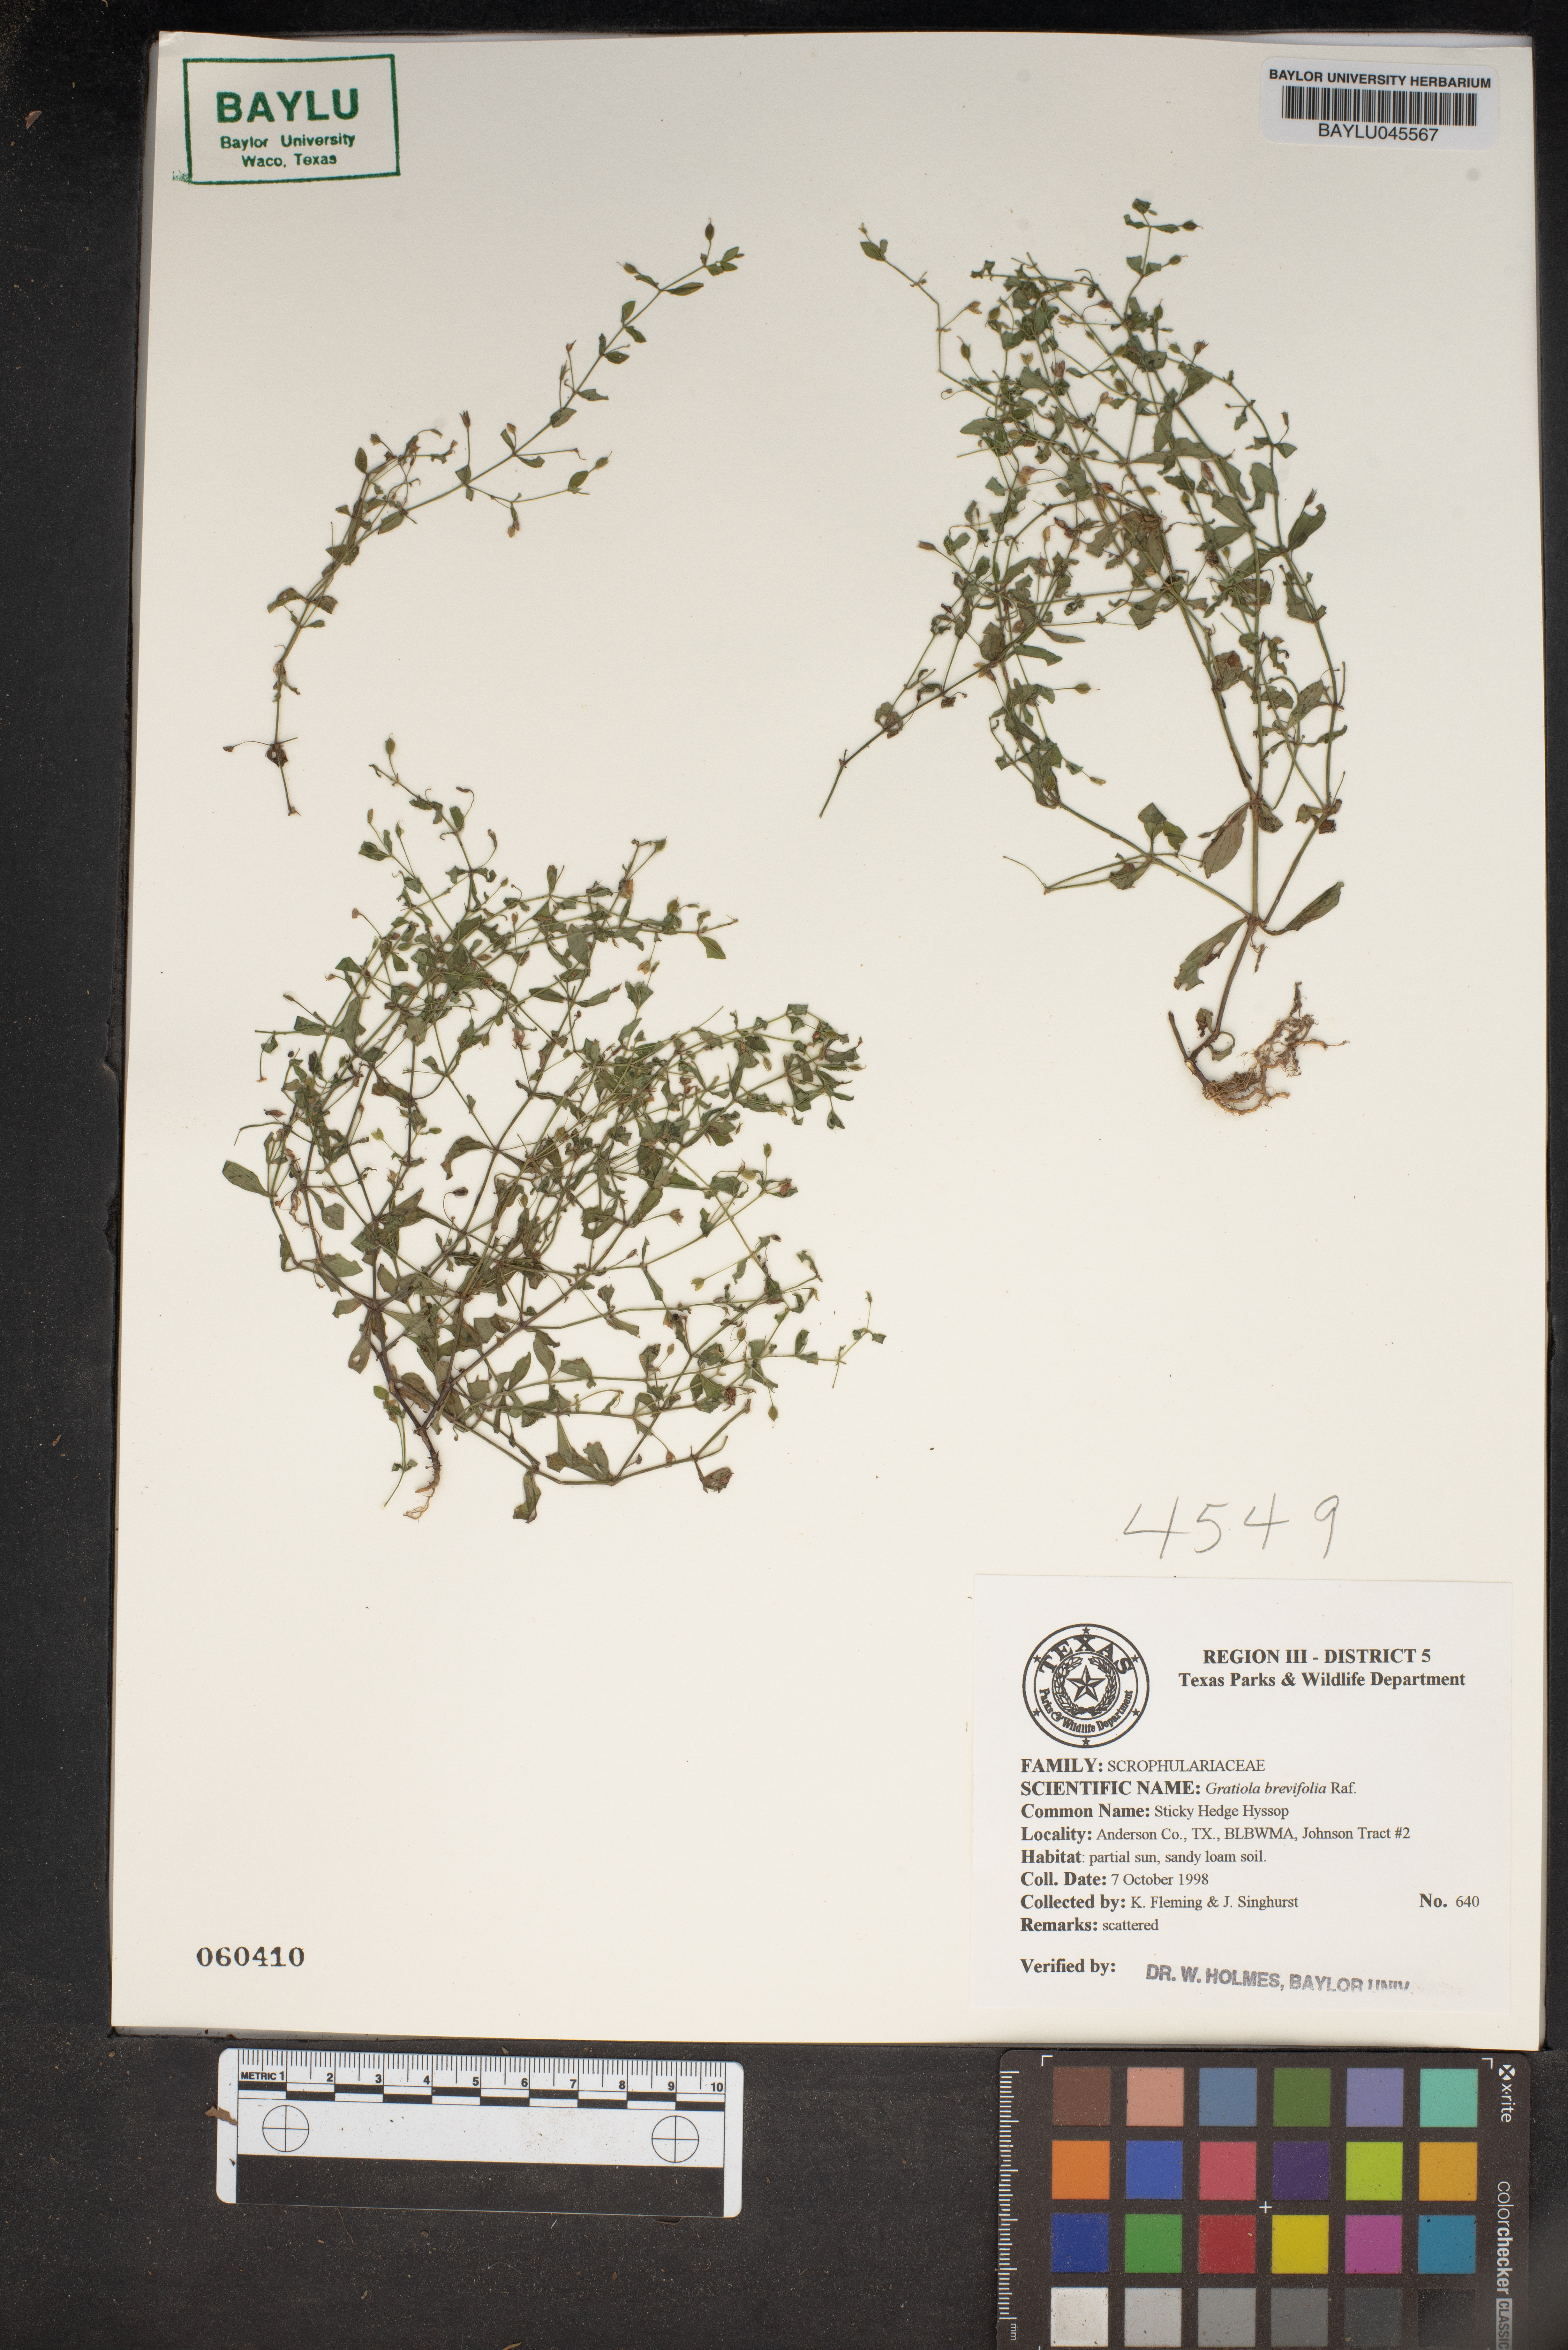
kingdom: Plantae
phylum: Tracheophyta
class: Magnoliopsida
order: Lamiales
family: Plantaginaceae
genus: Gratiola
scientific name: Gratiola brevifolia
